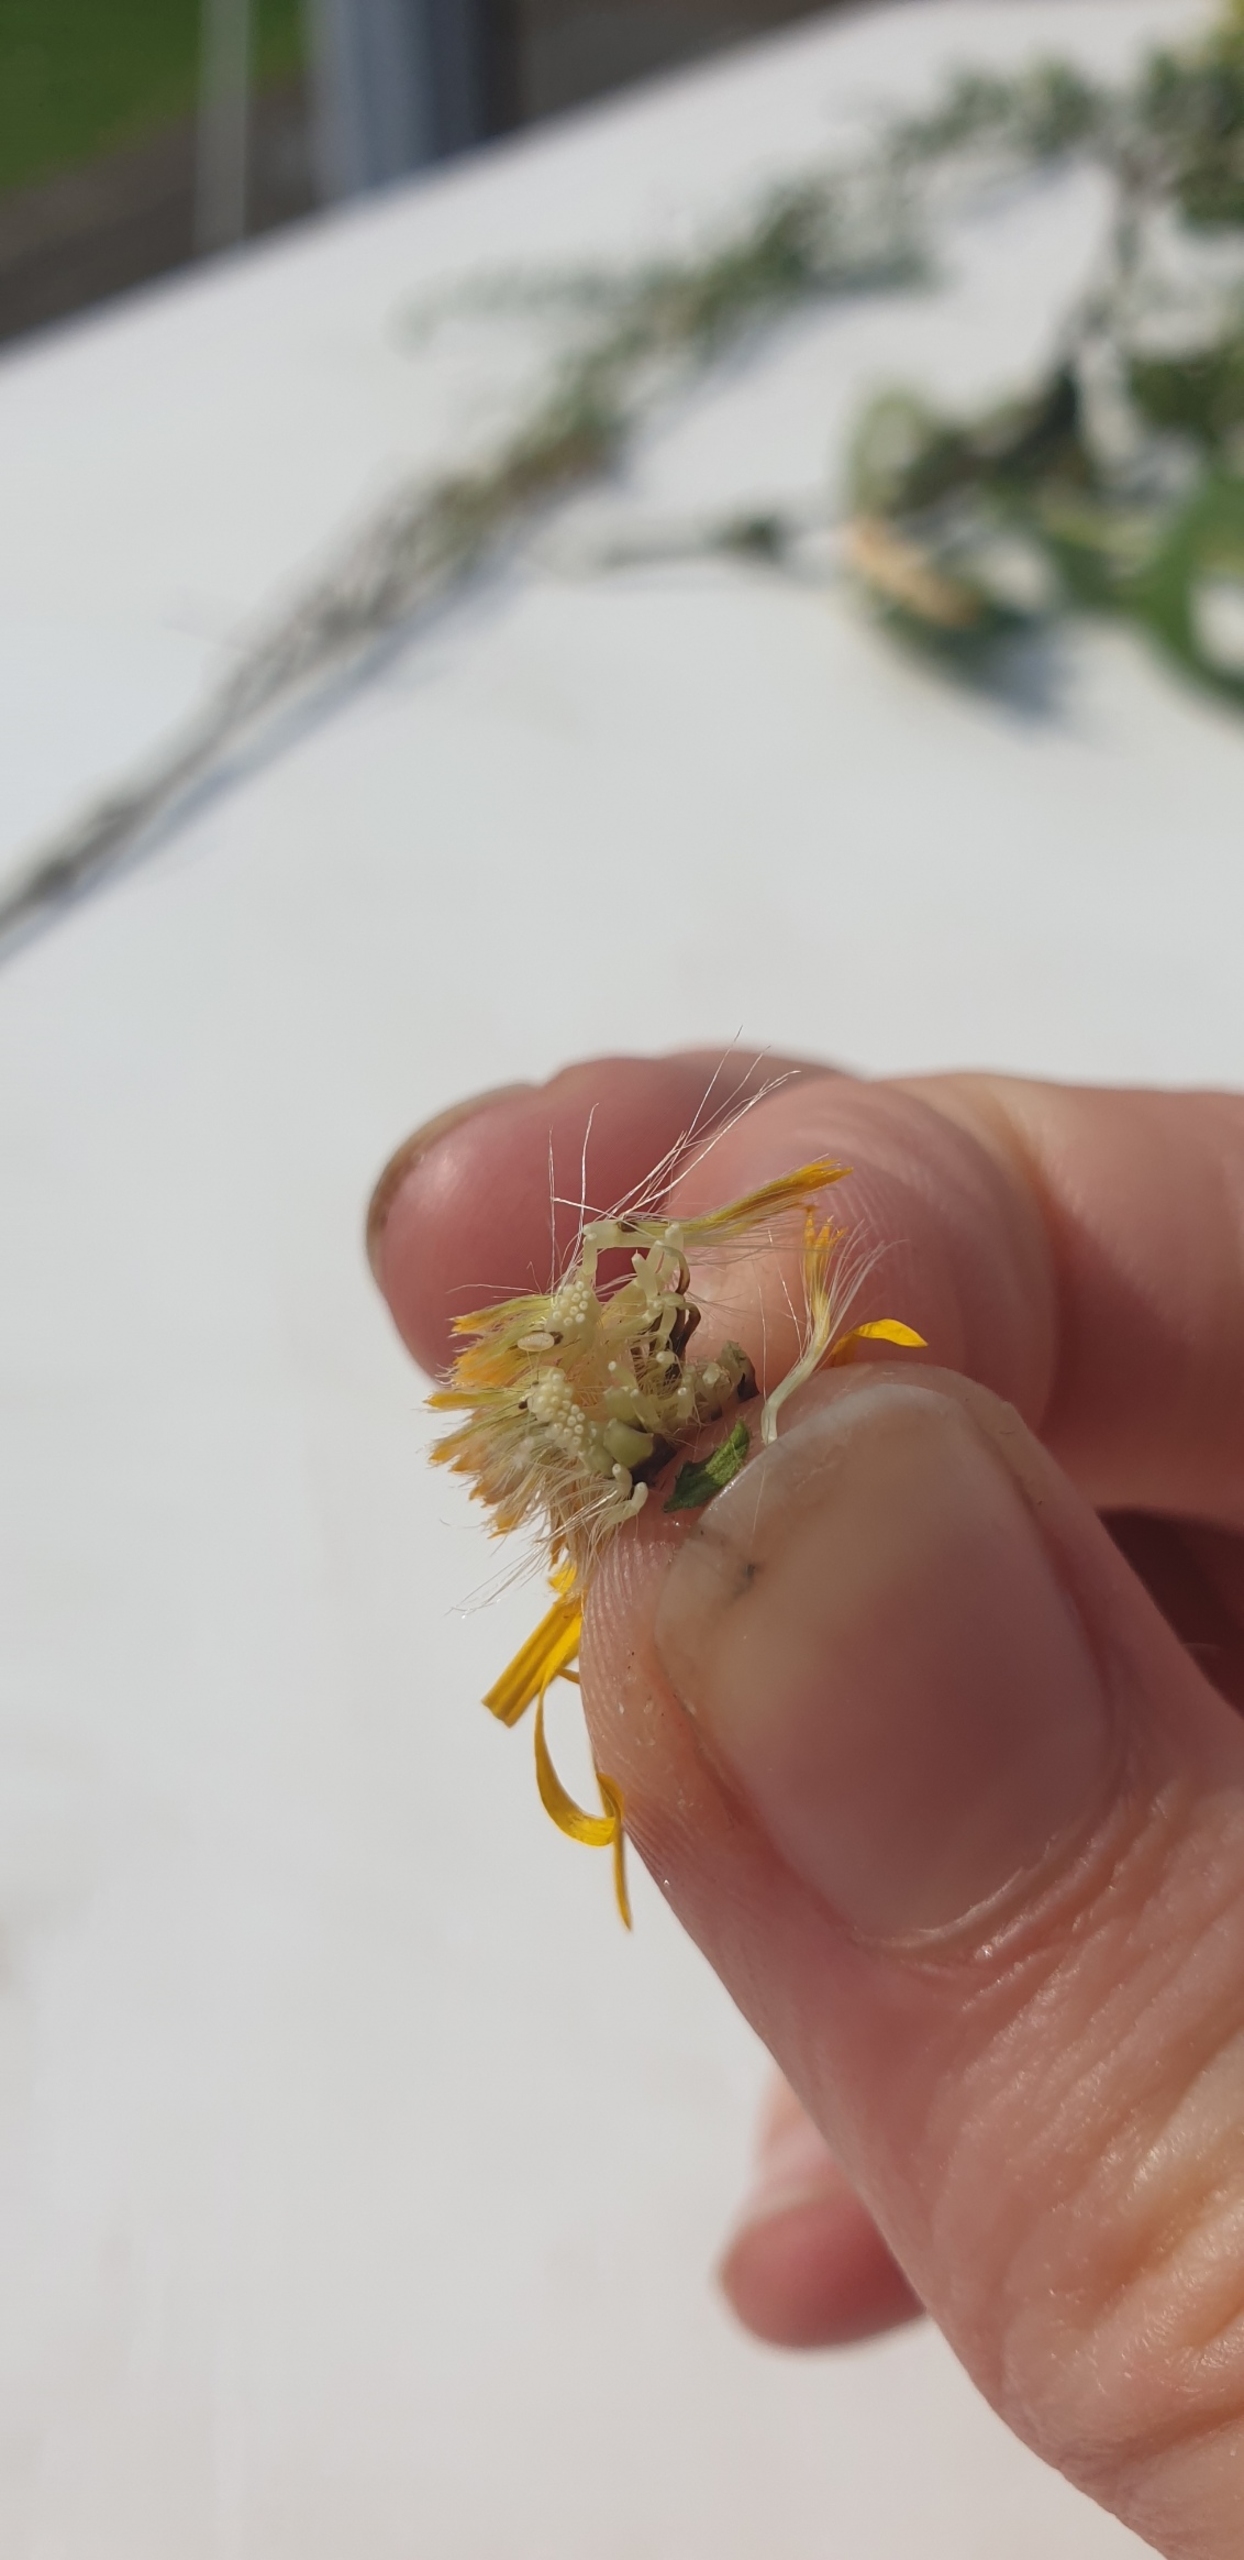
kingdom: Plantae
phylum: Tracheophyta
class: Magnoliopsida
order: Asterales
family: Asteraceae
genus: Pentanema
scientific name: Pentanema salicinum
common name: Pile-alant
